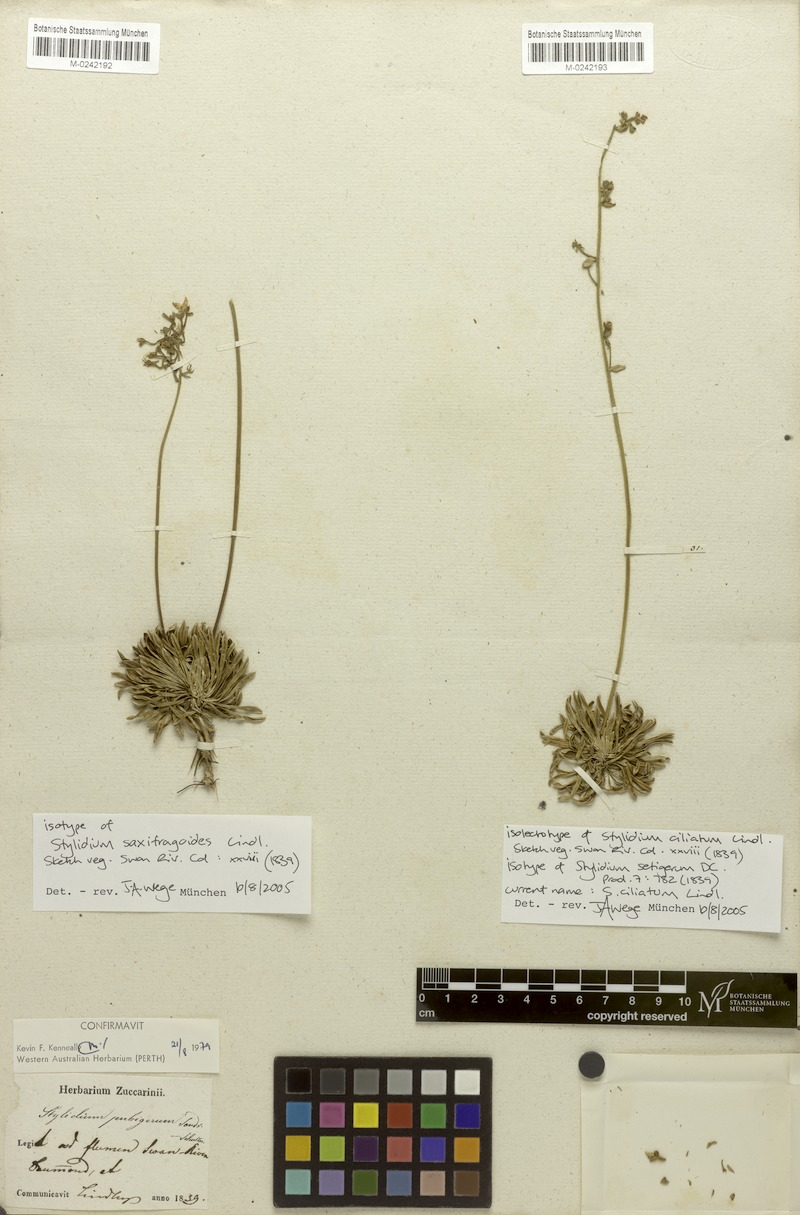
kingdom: Plantae
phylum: Tracheophyta
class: Magnoliopsida
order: Asterales
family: Stylidiaceae
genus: Stylidium
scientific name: Stylidium ciliatum
